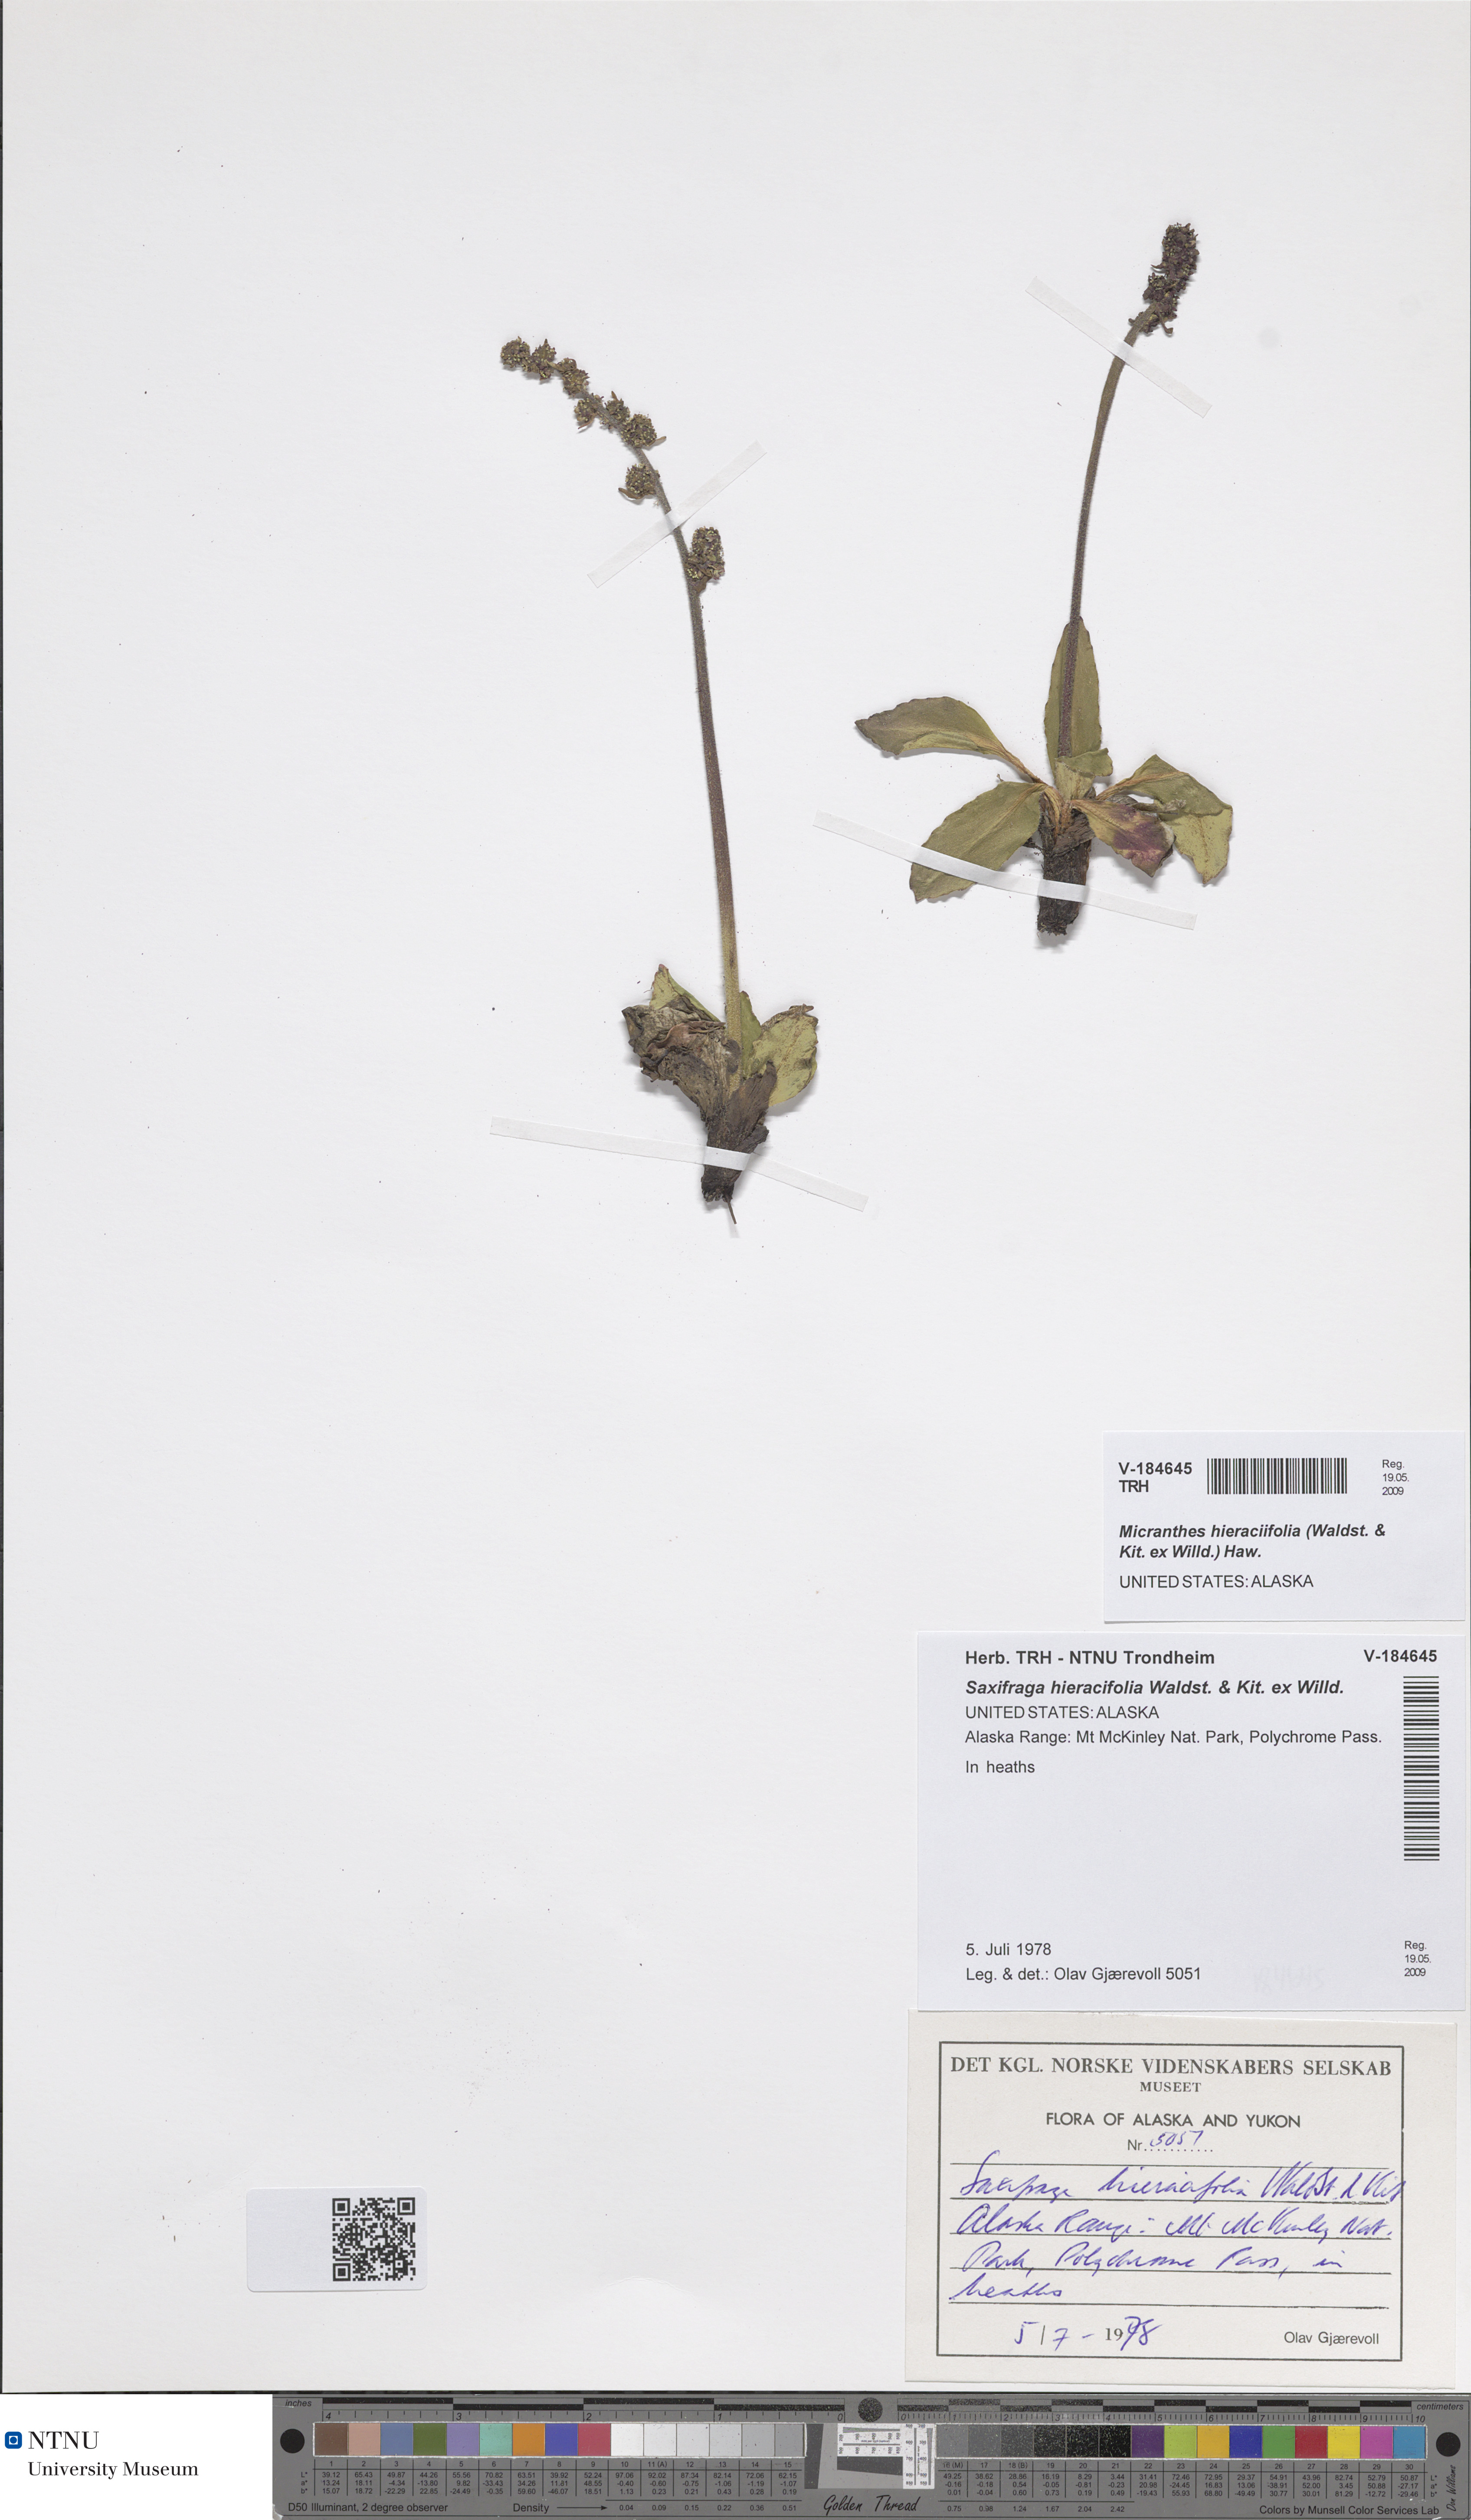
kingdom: Plantae
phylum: Tracheophyta
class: Magnoliopsida
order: Saxifragales
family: Saxifragaceae
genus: Micranthes
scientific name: Micranthes hieraciifolia
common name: Hawkweed-leaved saxifrage
